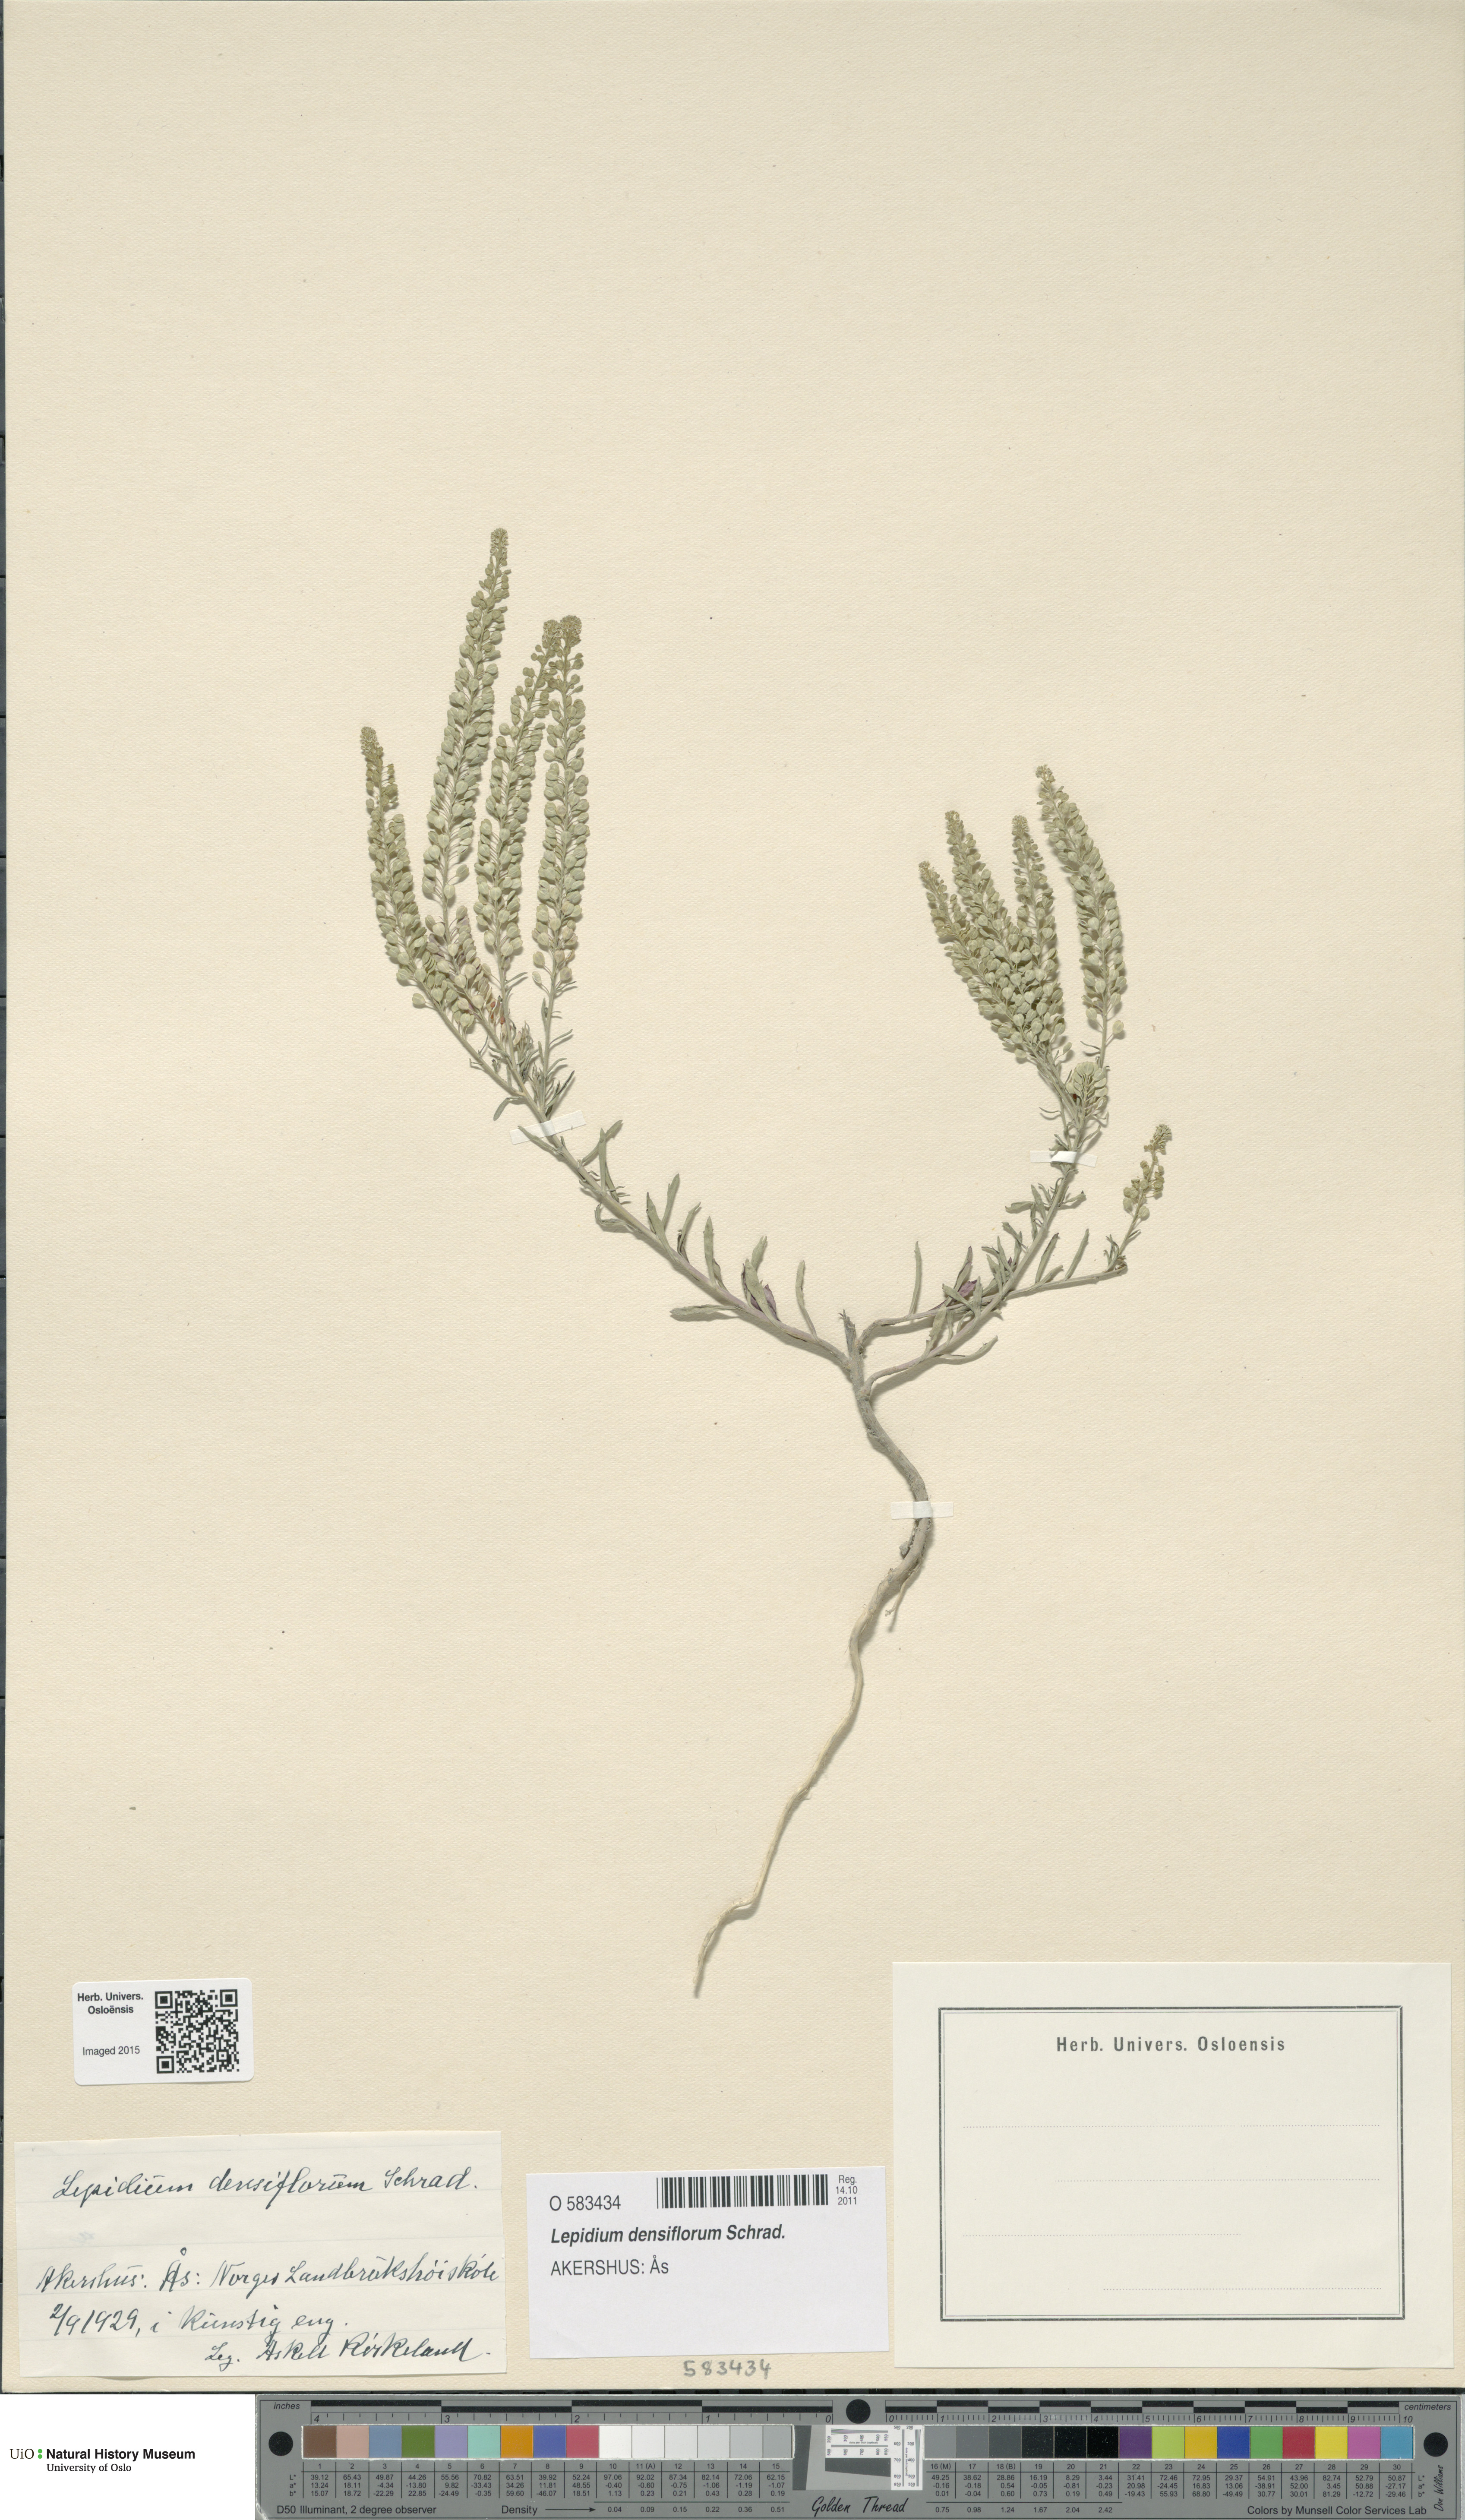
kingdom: Plantae
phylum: Tracheophyta
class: Magnoliopsida
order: Brassicales
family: Brassicaceae
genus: Lepidium
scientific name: Lepidium densiflorum
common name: Miner's pepperwort
